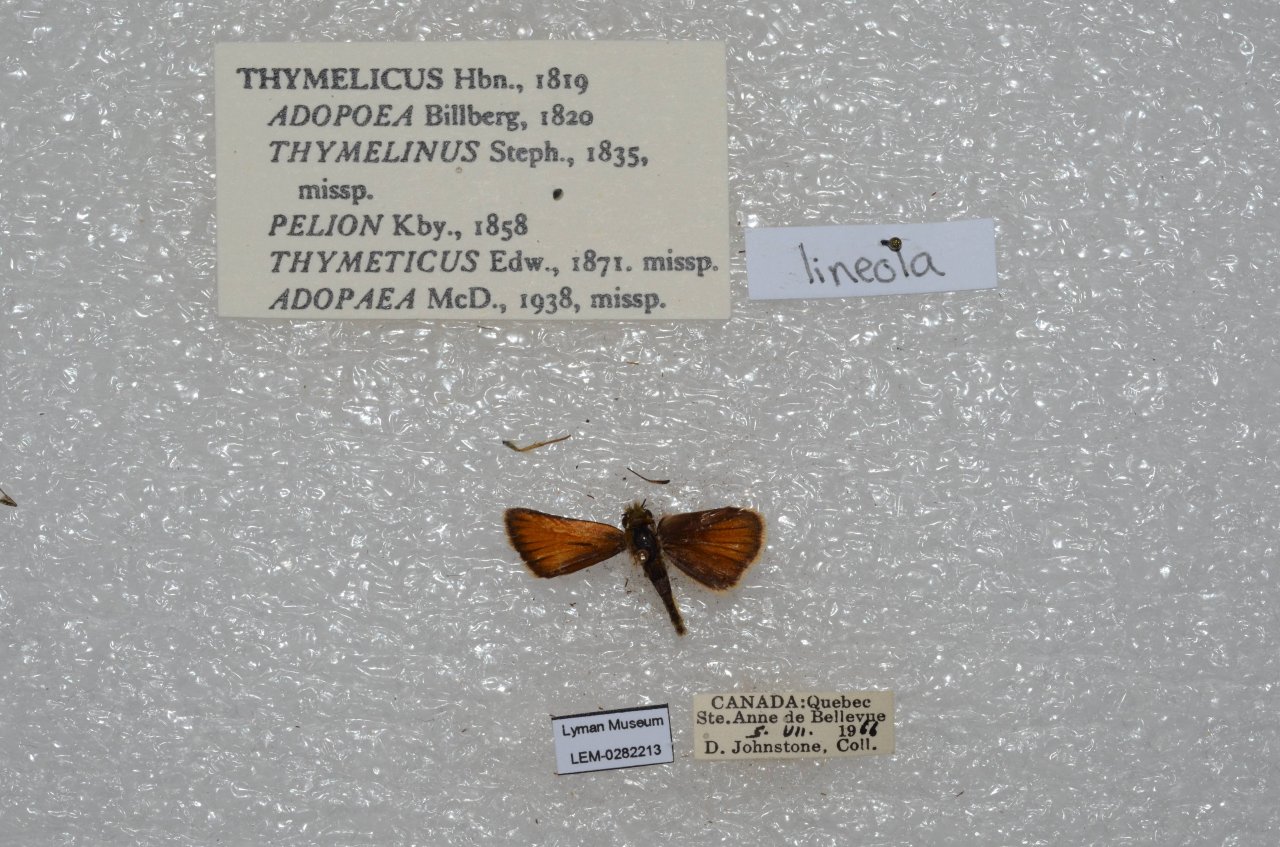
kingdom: Animalia
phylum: Arthropoda
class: Insecta
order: Lepidoptera
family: Hesperiidae
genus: Thymelicus
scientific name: Thymelicus lineola
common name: European Skipper
